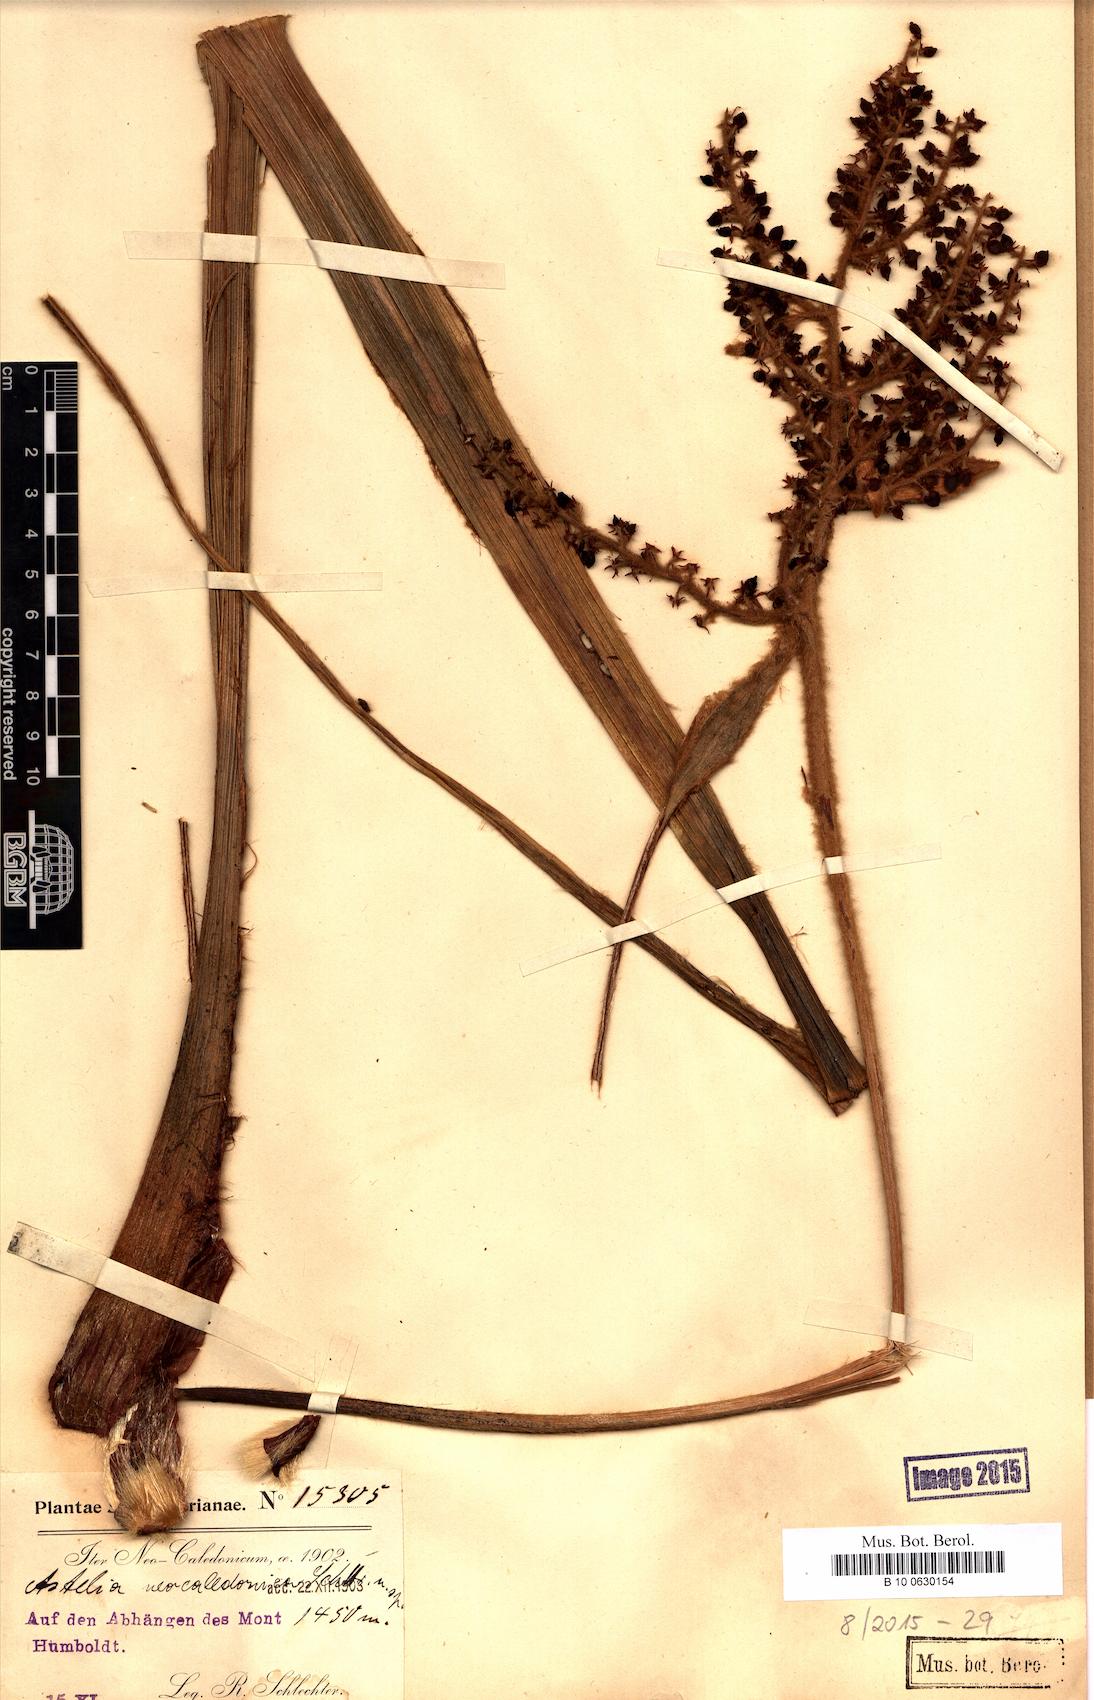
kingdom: Plantae
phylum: Tracheophyta
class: Liliopsida
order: Asparagales
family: Asteliaceae
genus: Astelia
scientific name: Astelia neocaledonica
